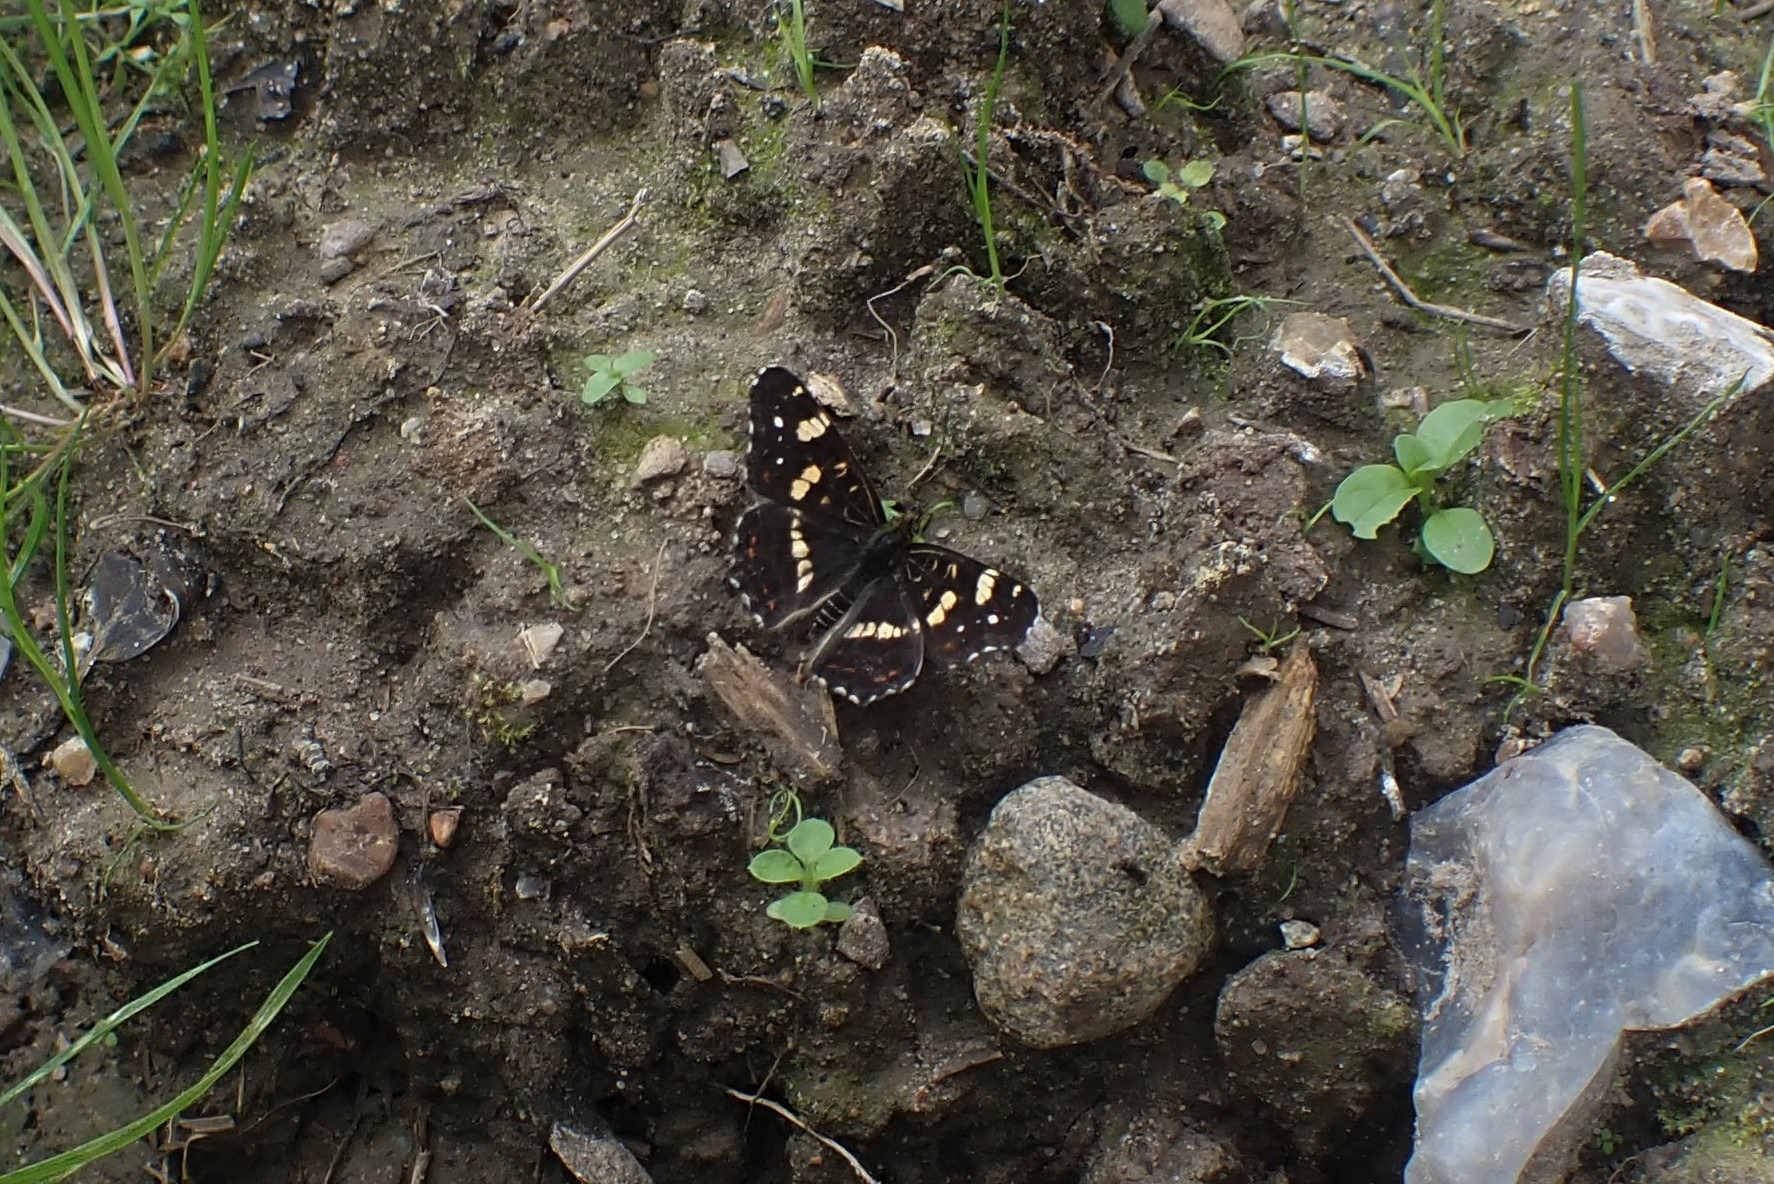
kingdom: Animalia
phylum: Arthropoda
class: Insecta
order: Lepidoptera
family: Nymphalidae
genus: Araschnia
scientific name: Araschnia levana
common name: Nældesommerfugl
